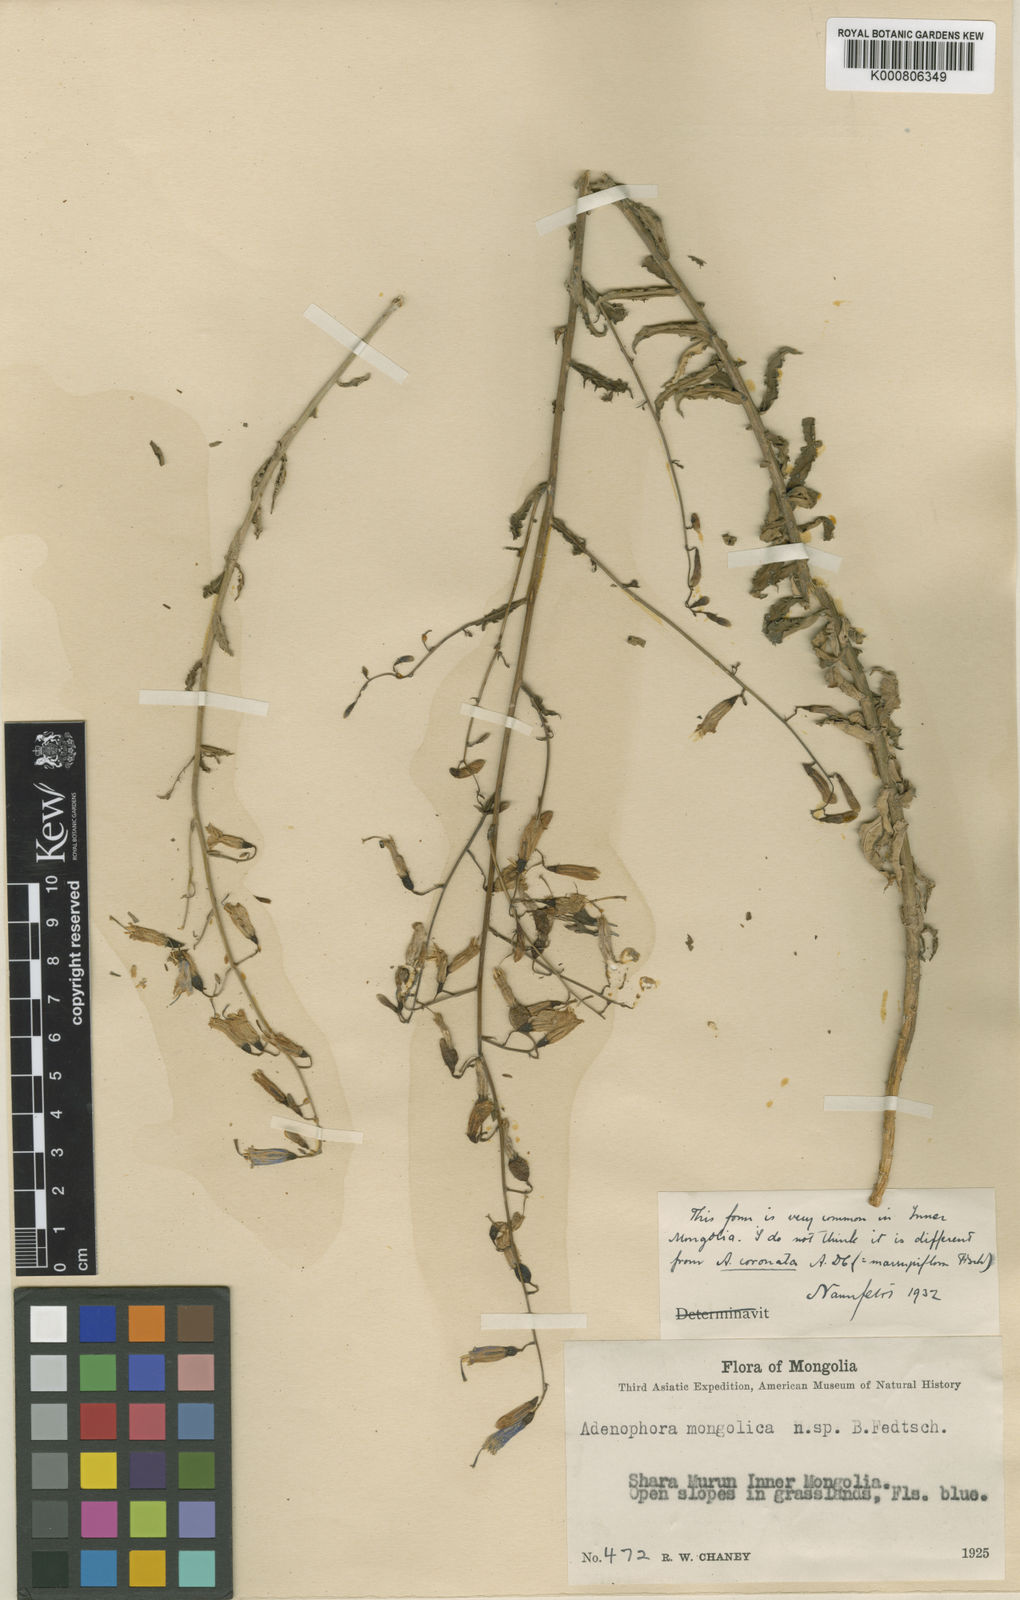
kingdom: Plantae
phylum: Tracheophyta
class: Magnoliopsida
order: Asterales
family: Campanulaceae
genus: Adenophora
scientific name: Adenophora
